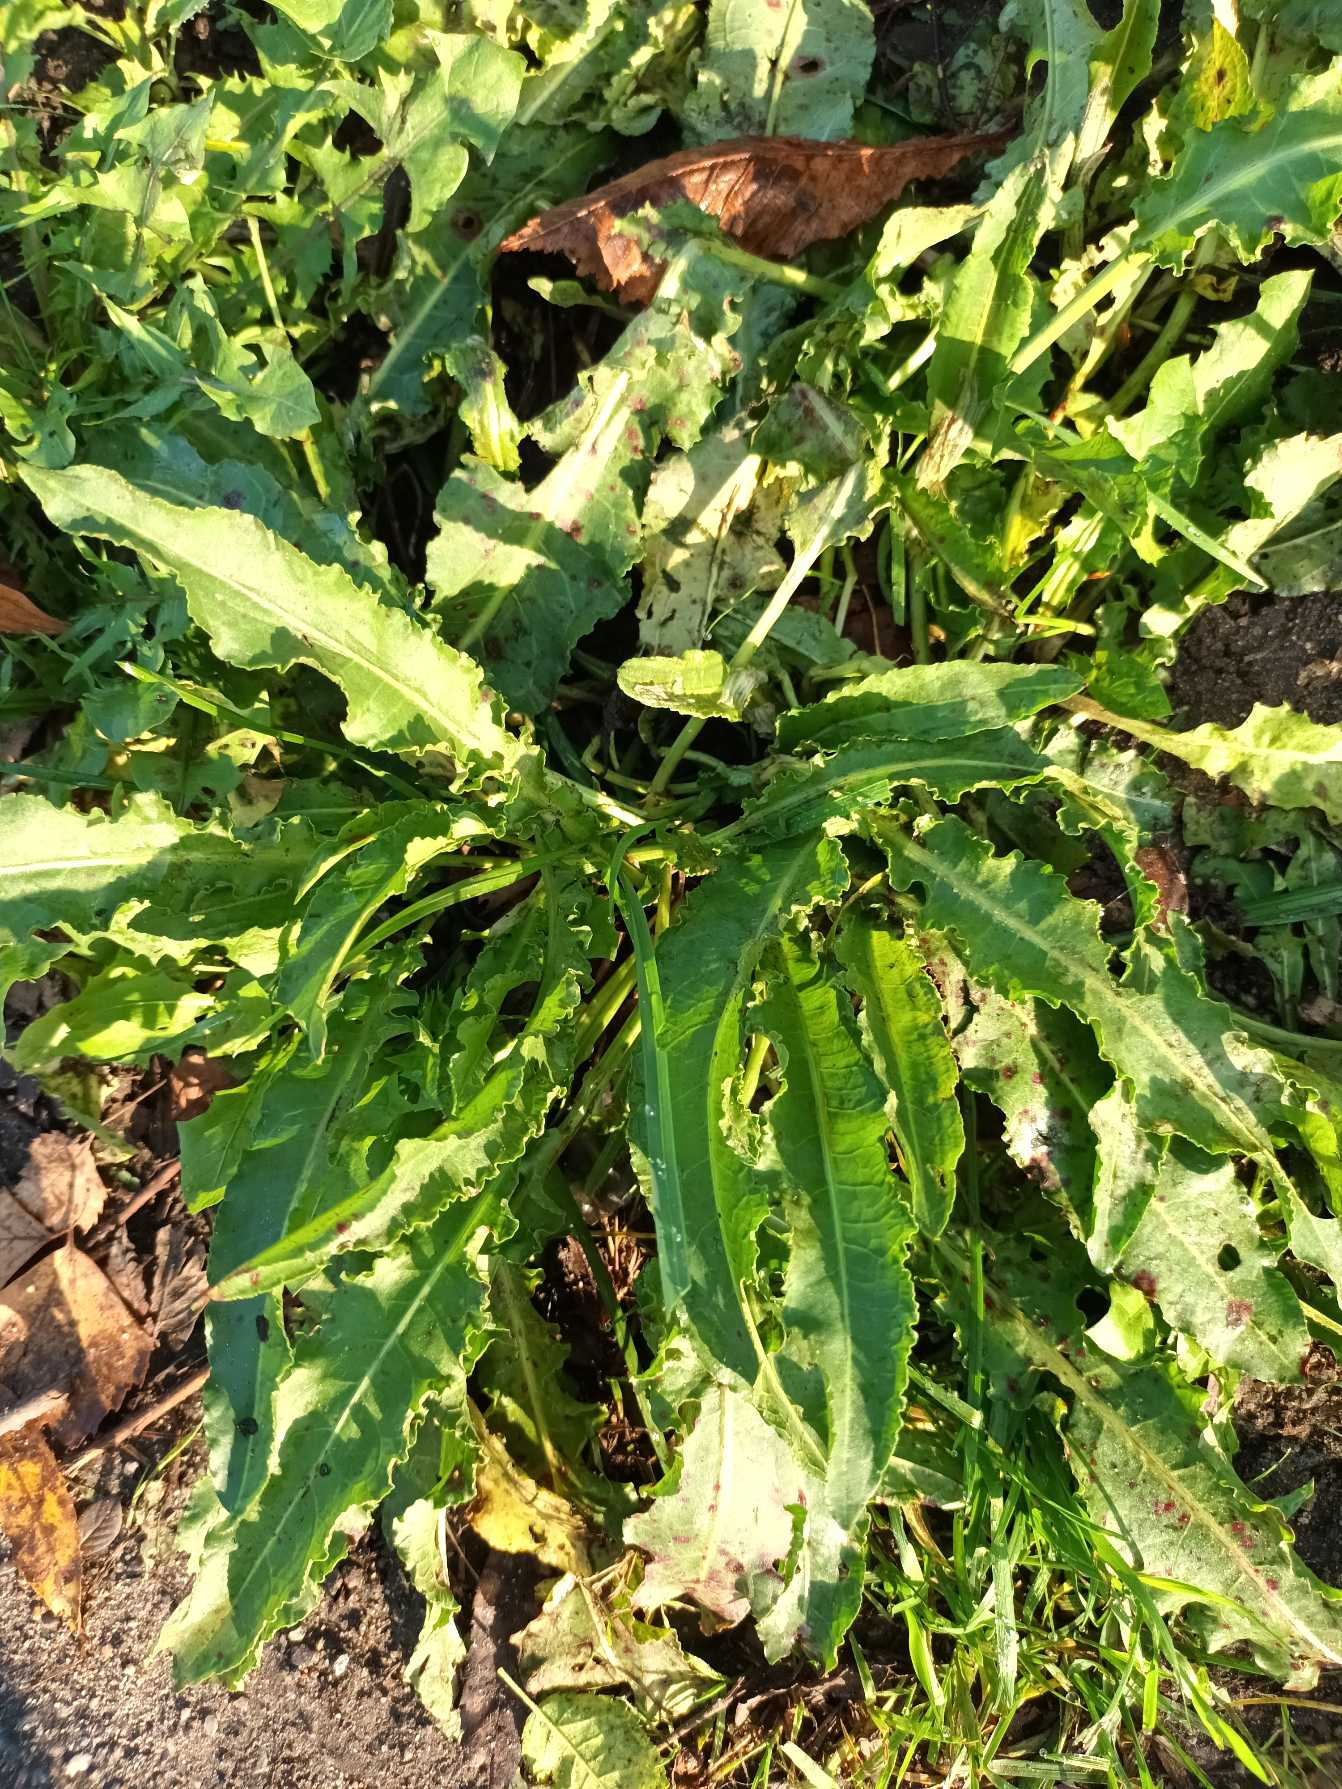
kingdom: Plantae
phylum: Tracheophyta
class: Magnoliopsida
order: Caryophyllales
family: Polygonaceae
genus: Rumex
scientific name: Rumex crispus
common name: Kruset skræppe
